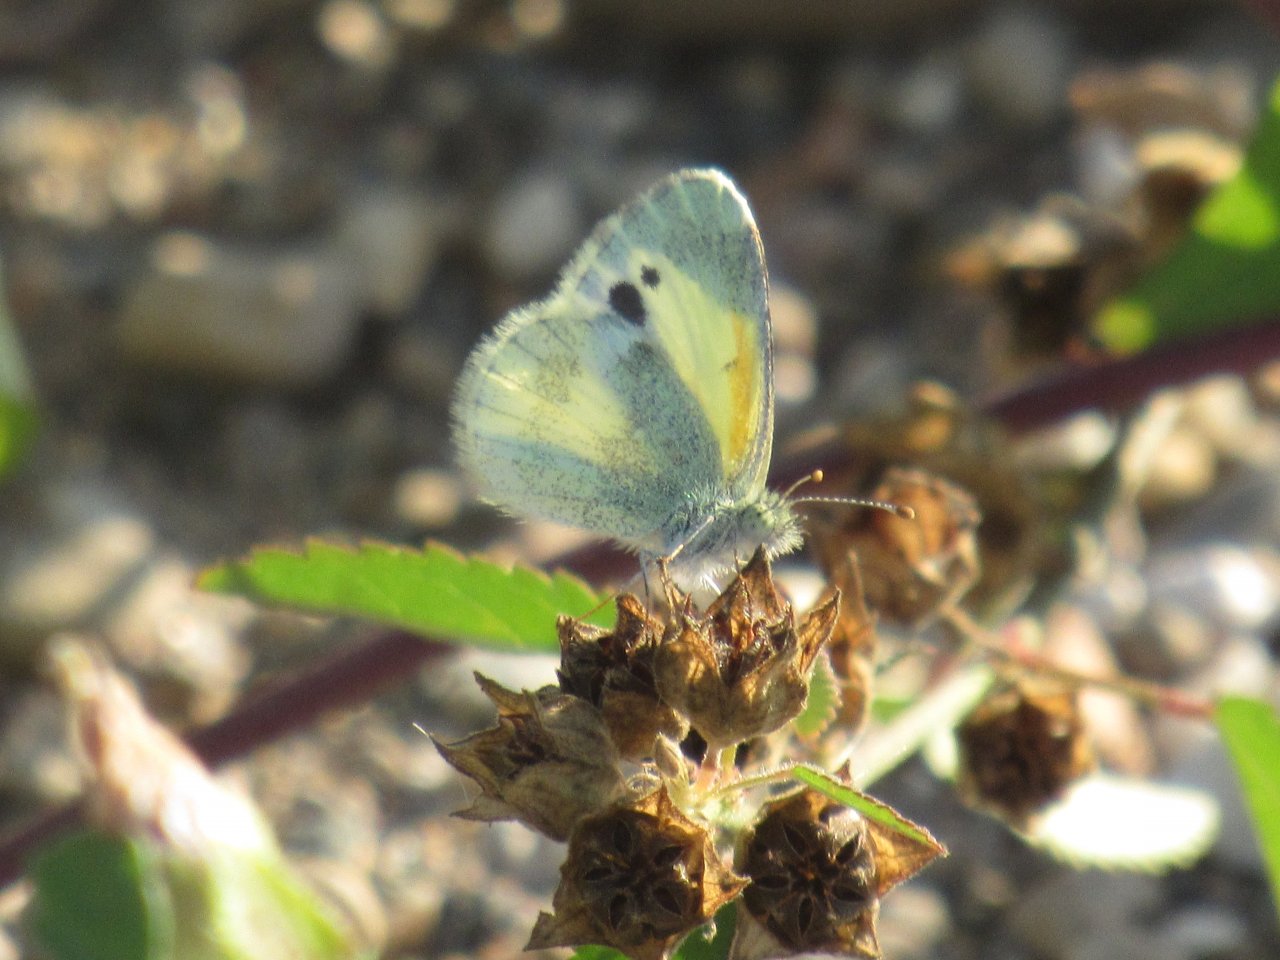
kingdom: Animalia
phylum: Arthropoda
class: Insecta
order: Lepidoptera
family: Pieridae
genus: Nathalis
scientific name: Nathalis iole
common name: Dainty Sulphur
